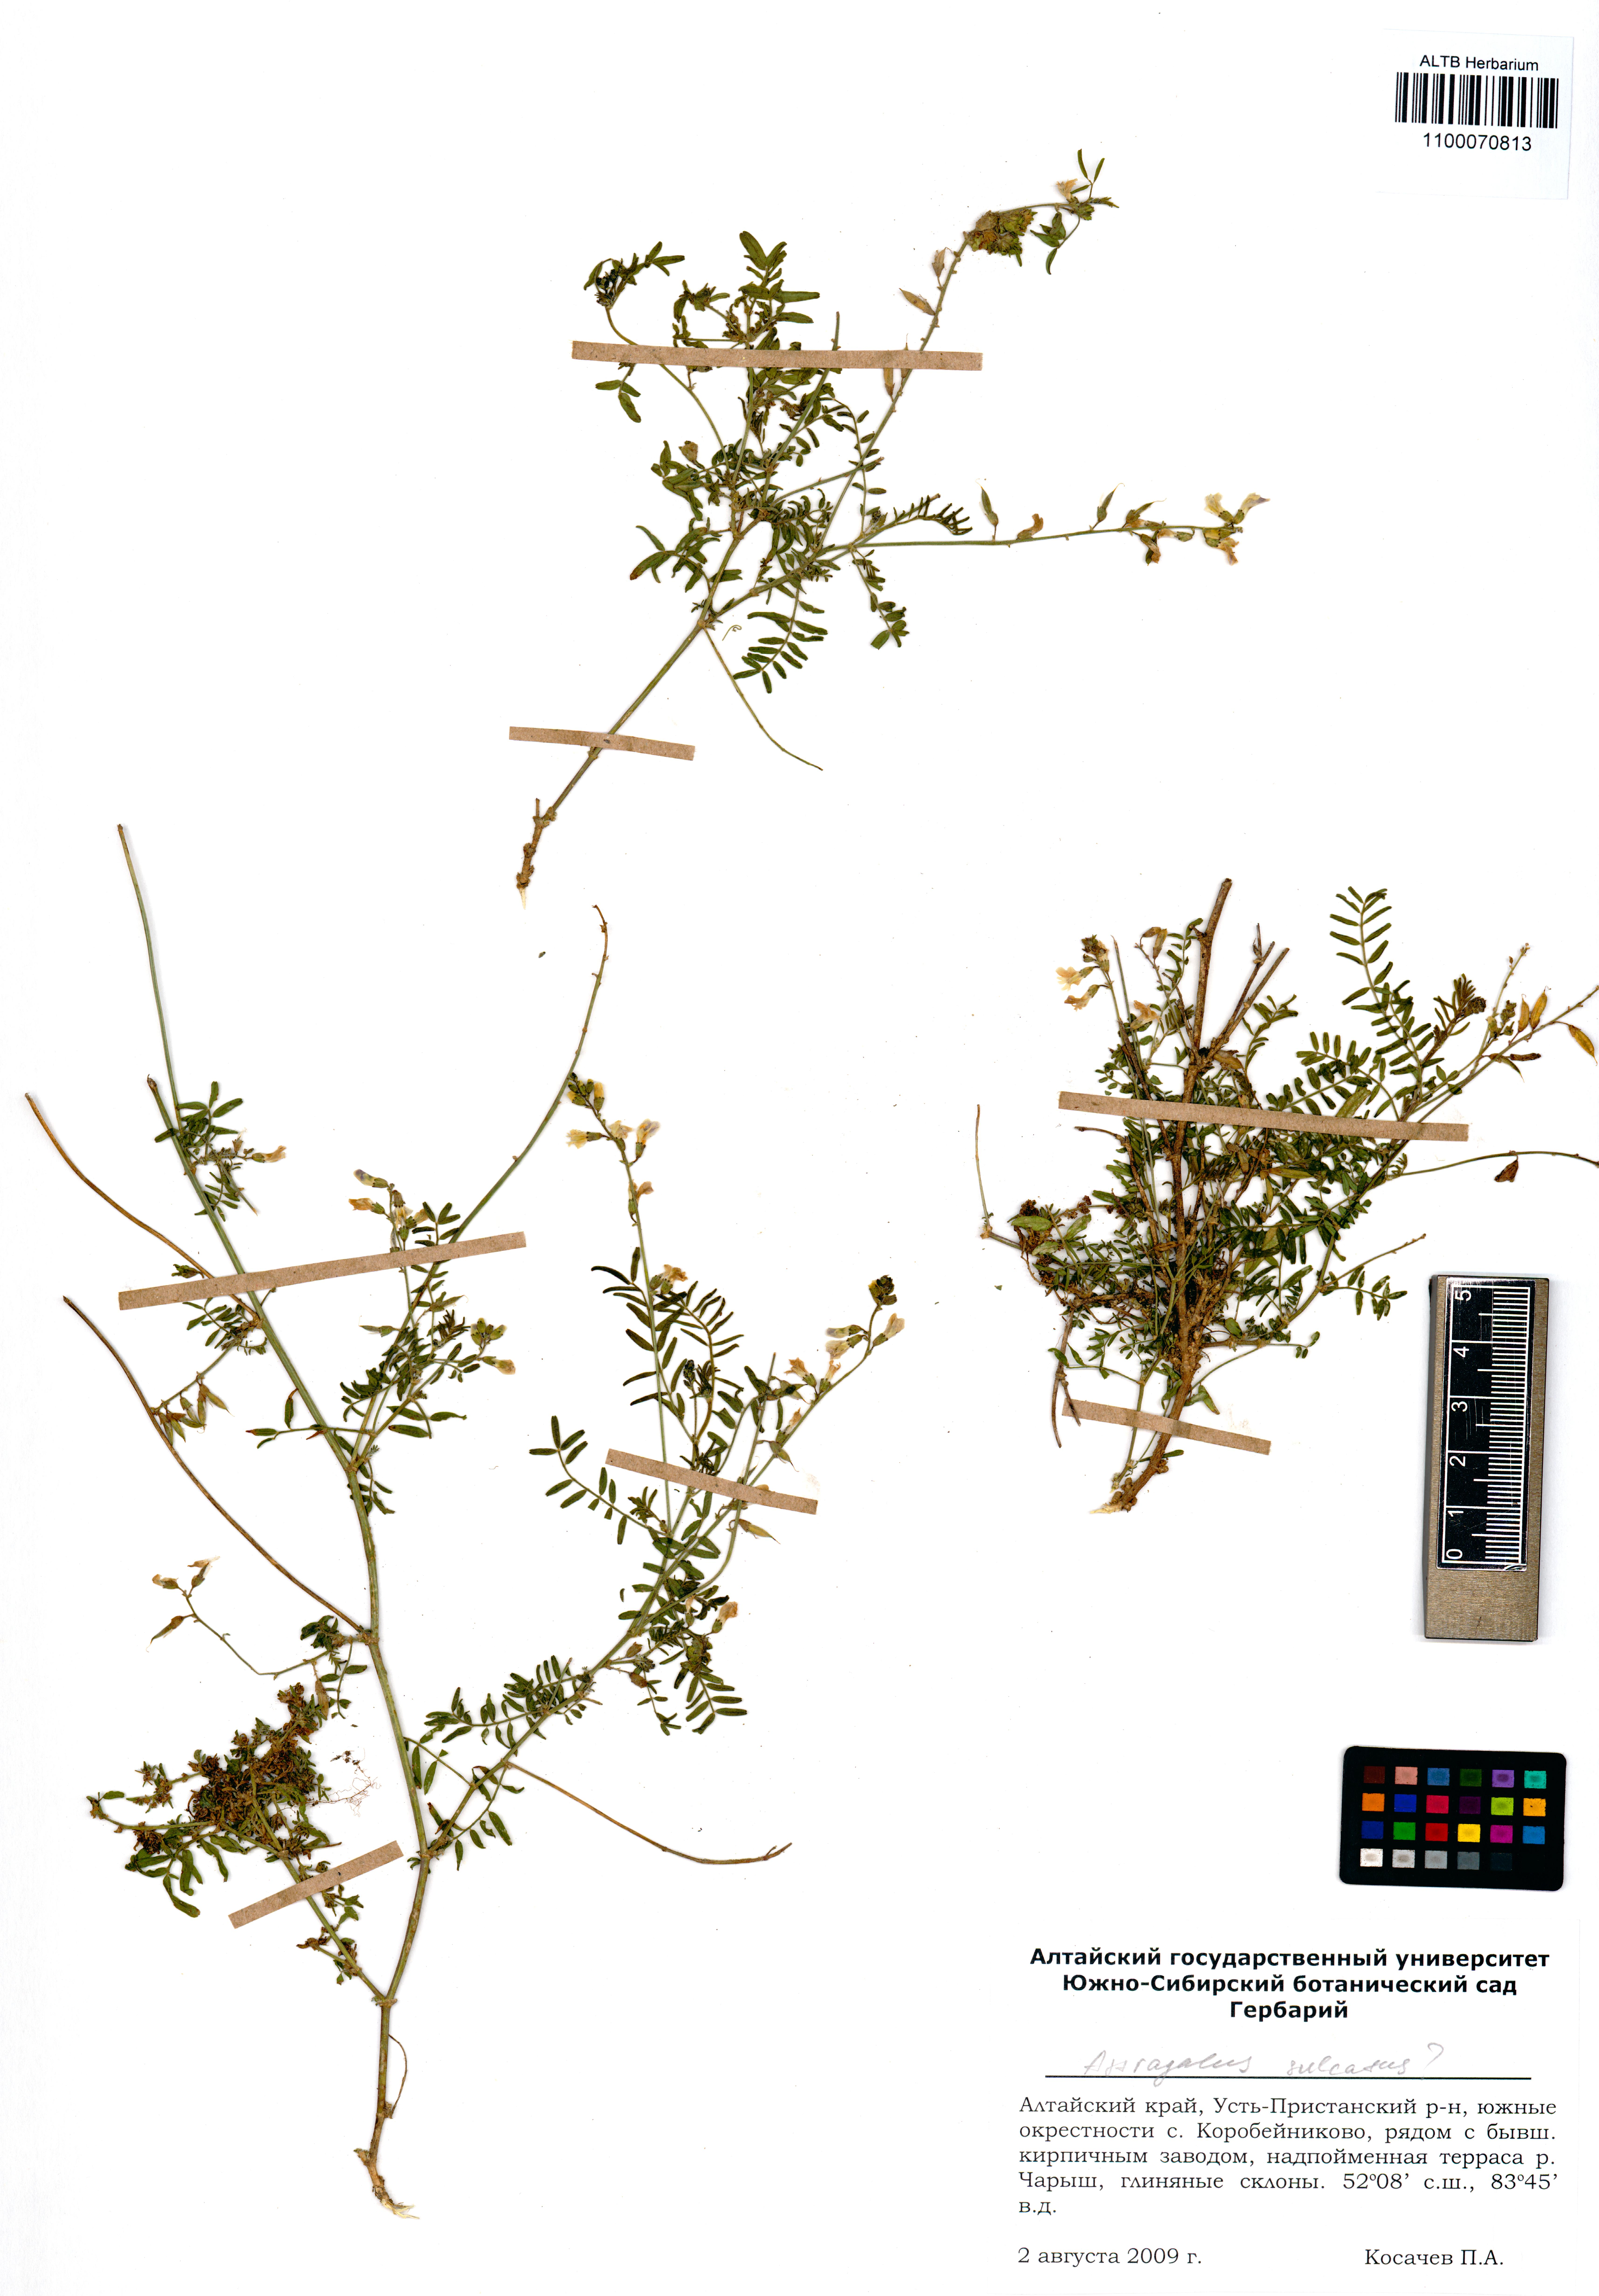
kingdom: Plantae
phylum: Tracheophyta
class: Magnoliopsida
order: Fabales
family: Fabaceae
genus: Astragalus
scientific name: Astragalus sulcatus
